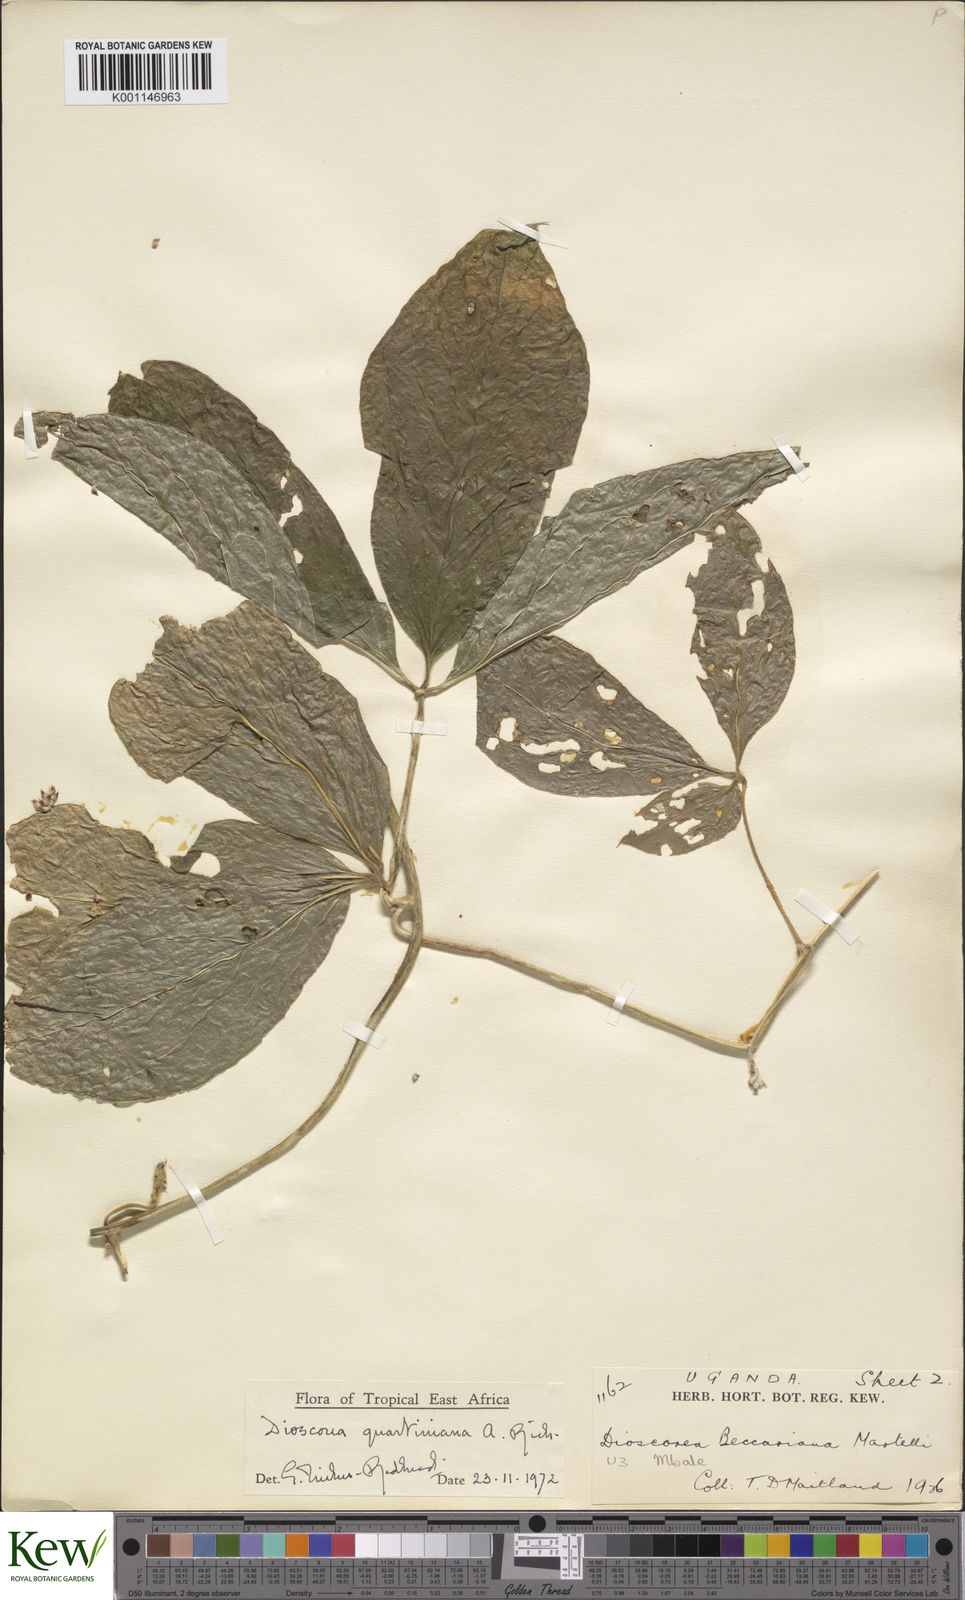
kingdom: Plantae
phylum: Tracheophyta
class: Liliopsida
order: Dioscoreales
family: Dioscoreaceae
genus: Dioscorea
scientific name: Dioscorea quartiniana
